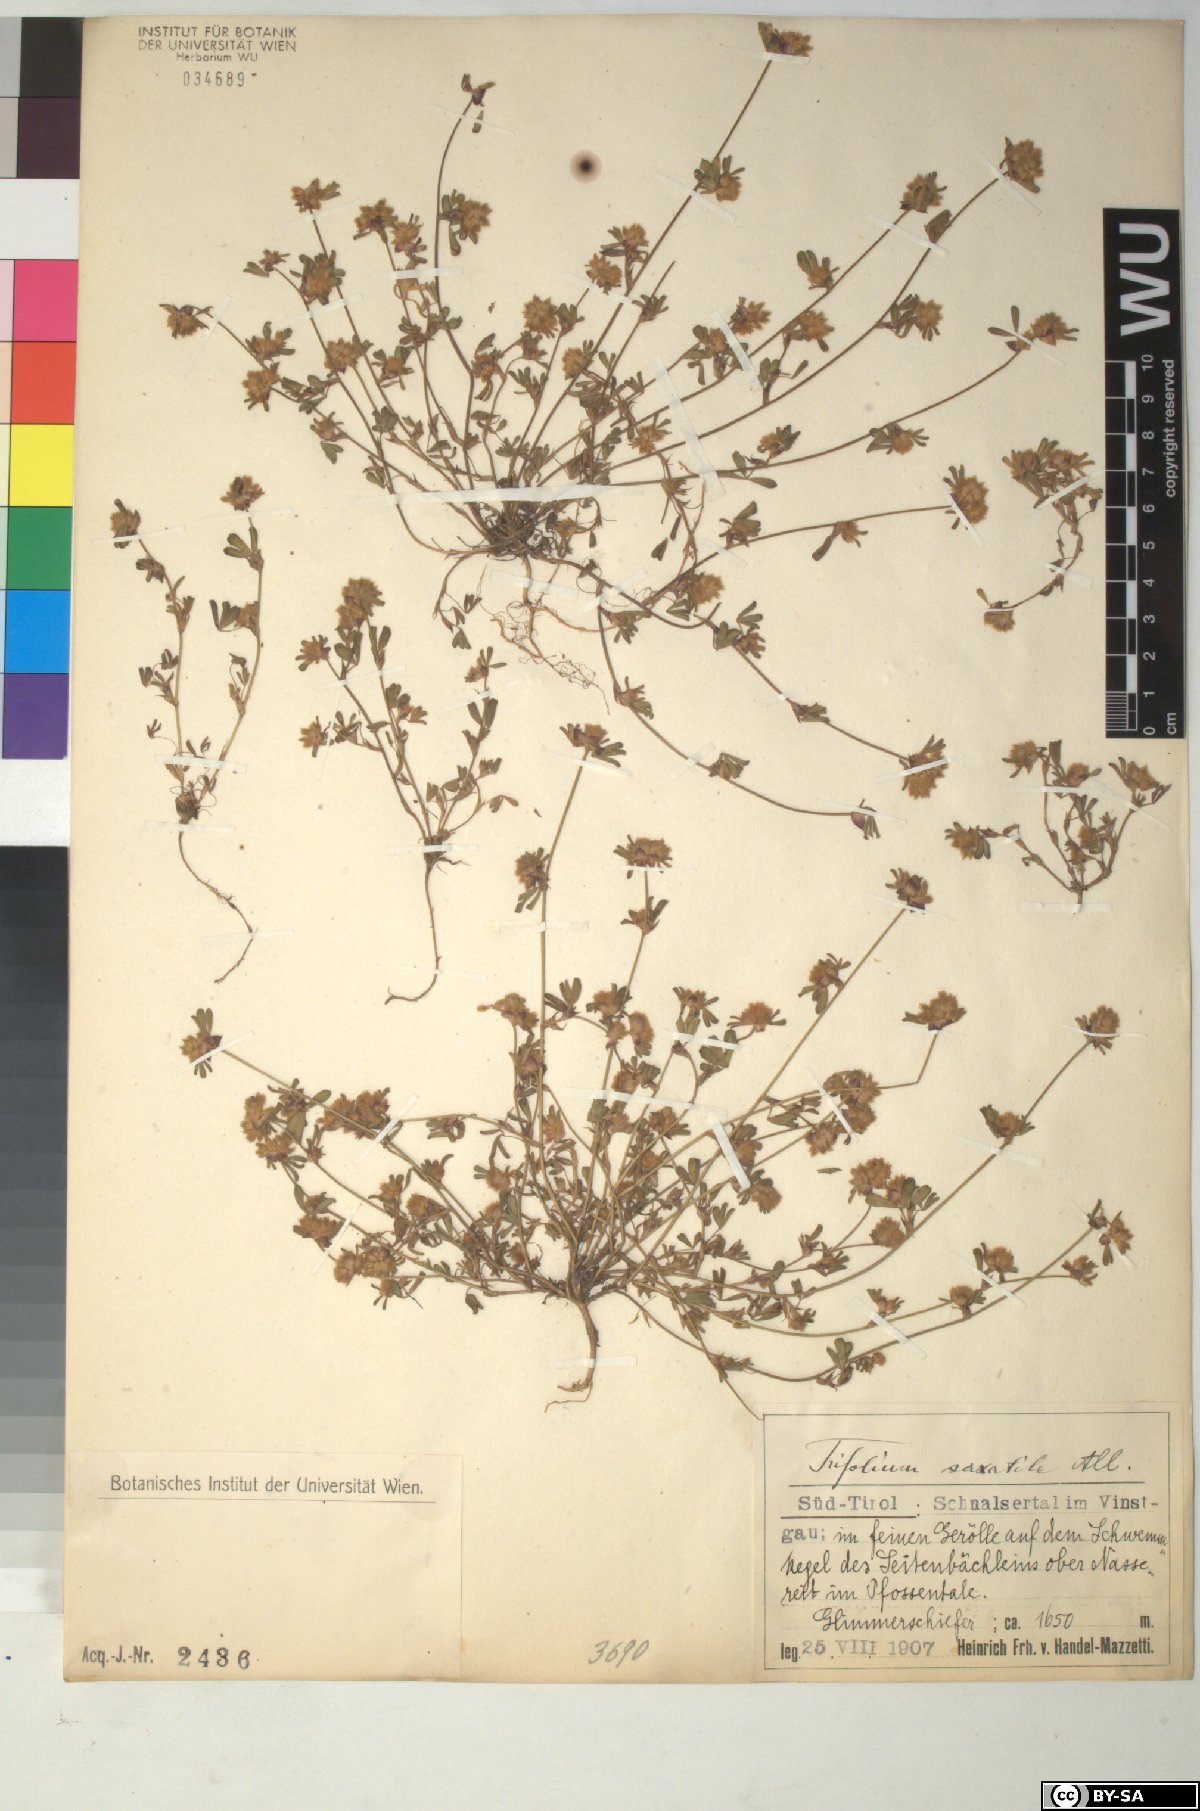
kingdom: Plantae
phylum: Tracheophyta
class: Magnoliopsida
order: Fabales
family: Fabaceae
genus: Trifolium
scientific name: Trifolium saxatile
